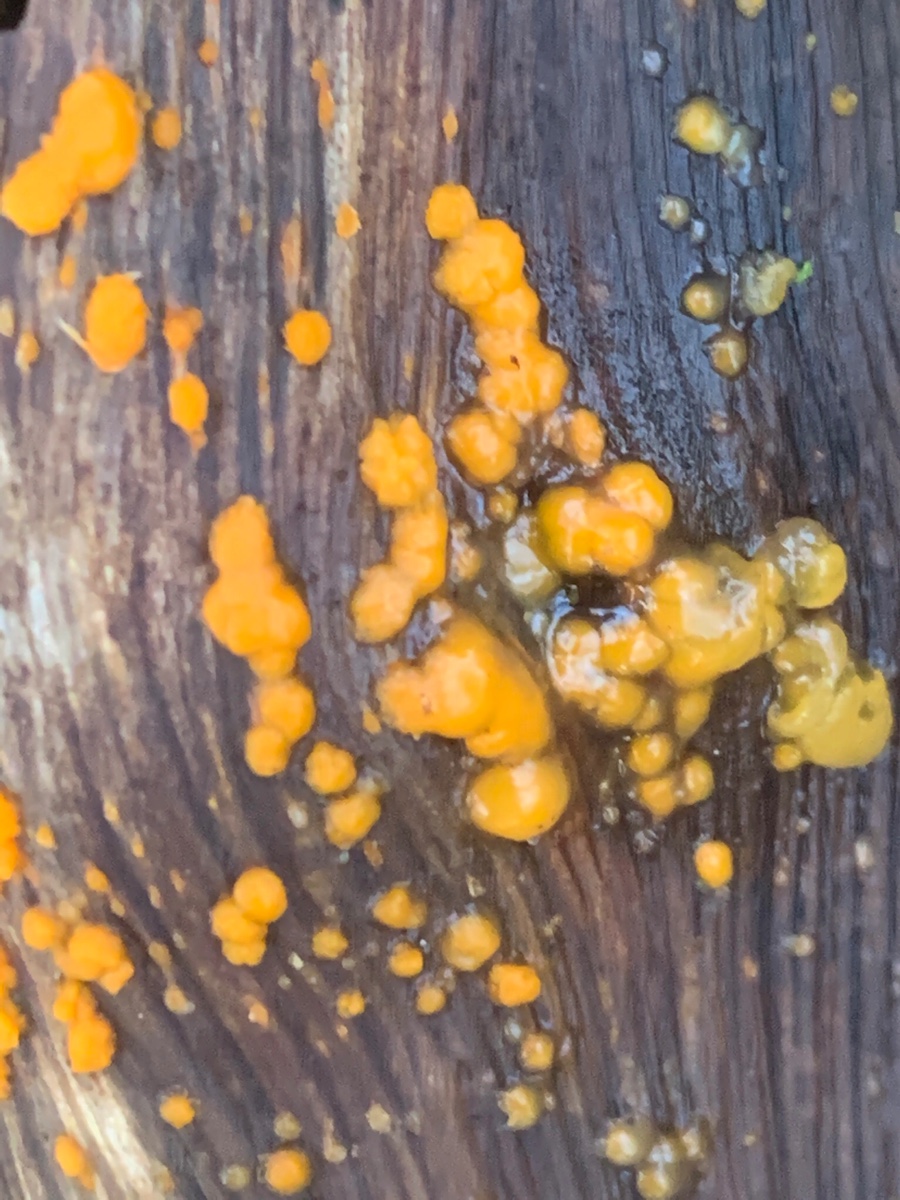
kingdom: Fungi
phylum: Basidiomycota
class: Dacrymycetes
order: Dacrymycetales
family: Dacrymycetaceae
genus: Dacrymyces
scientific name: Dacrymyces stillatus
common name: almindelig tåresvamp
